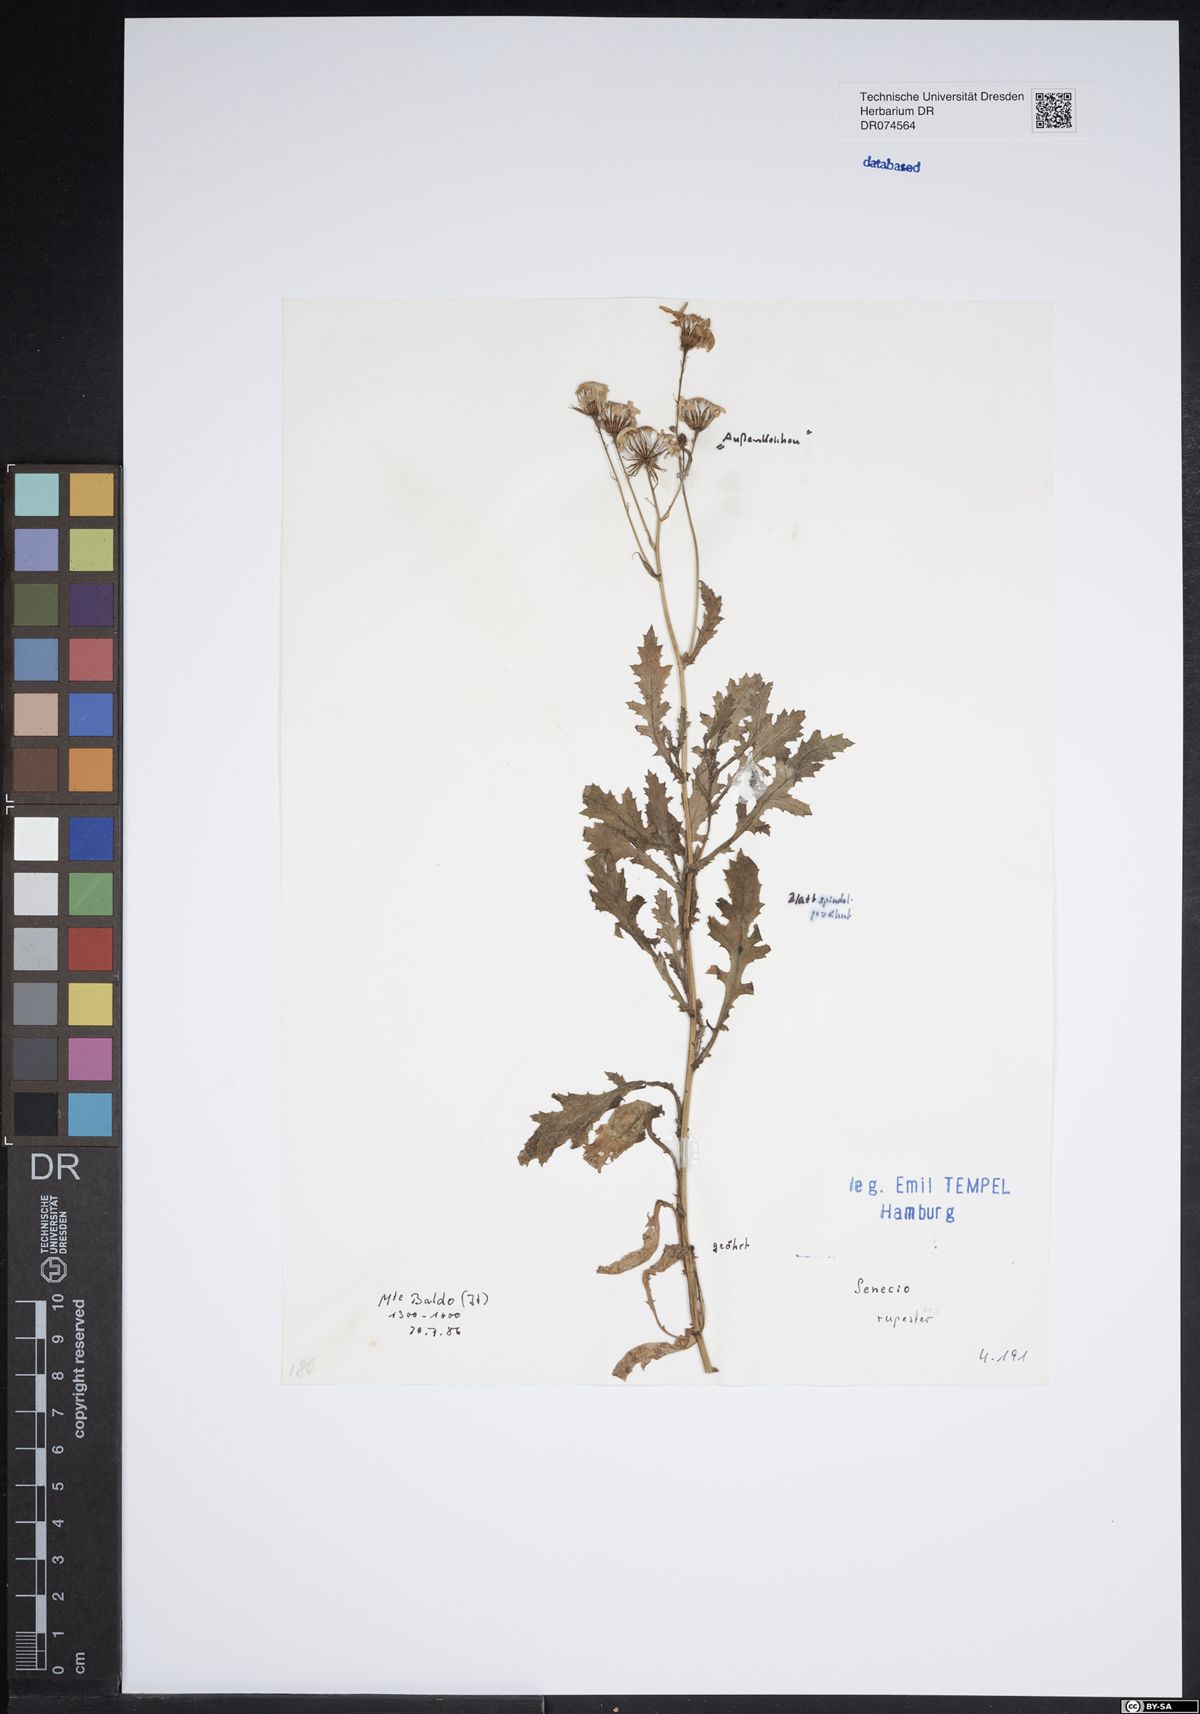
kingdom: Plantae
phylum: Tracheophyta
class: Magnoliopsida
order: Asterales
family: Asteraceae
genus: Senecio
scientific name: Senecio rupestris
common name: Rock ragwort
